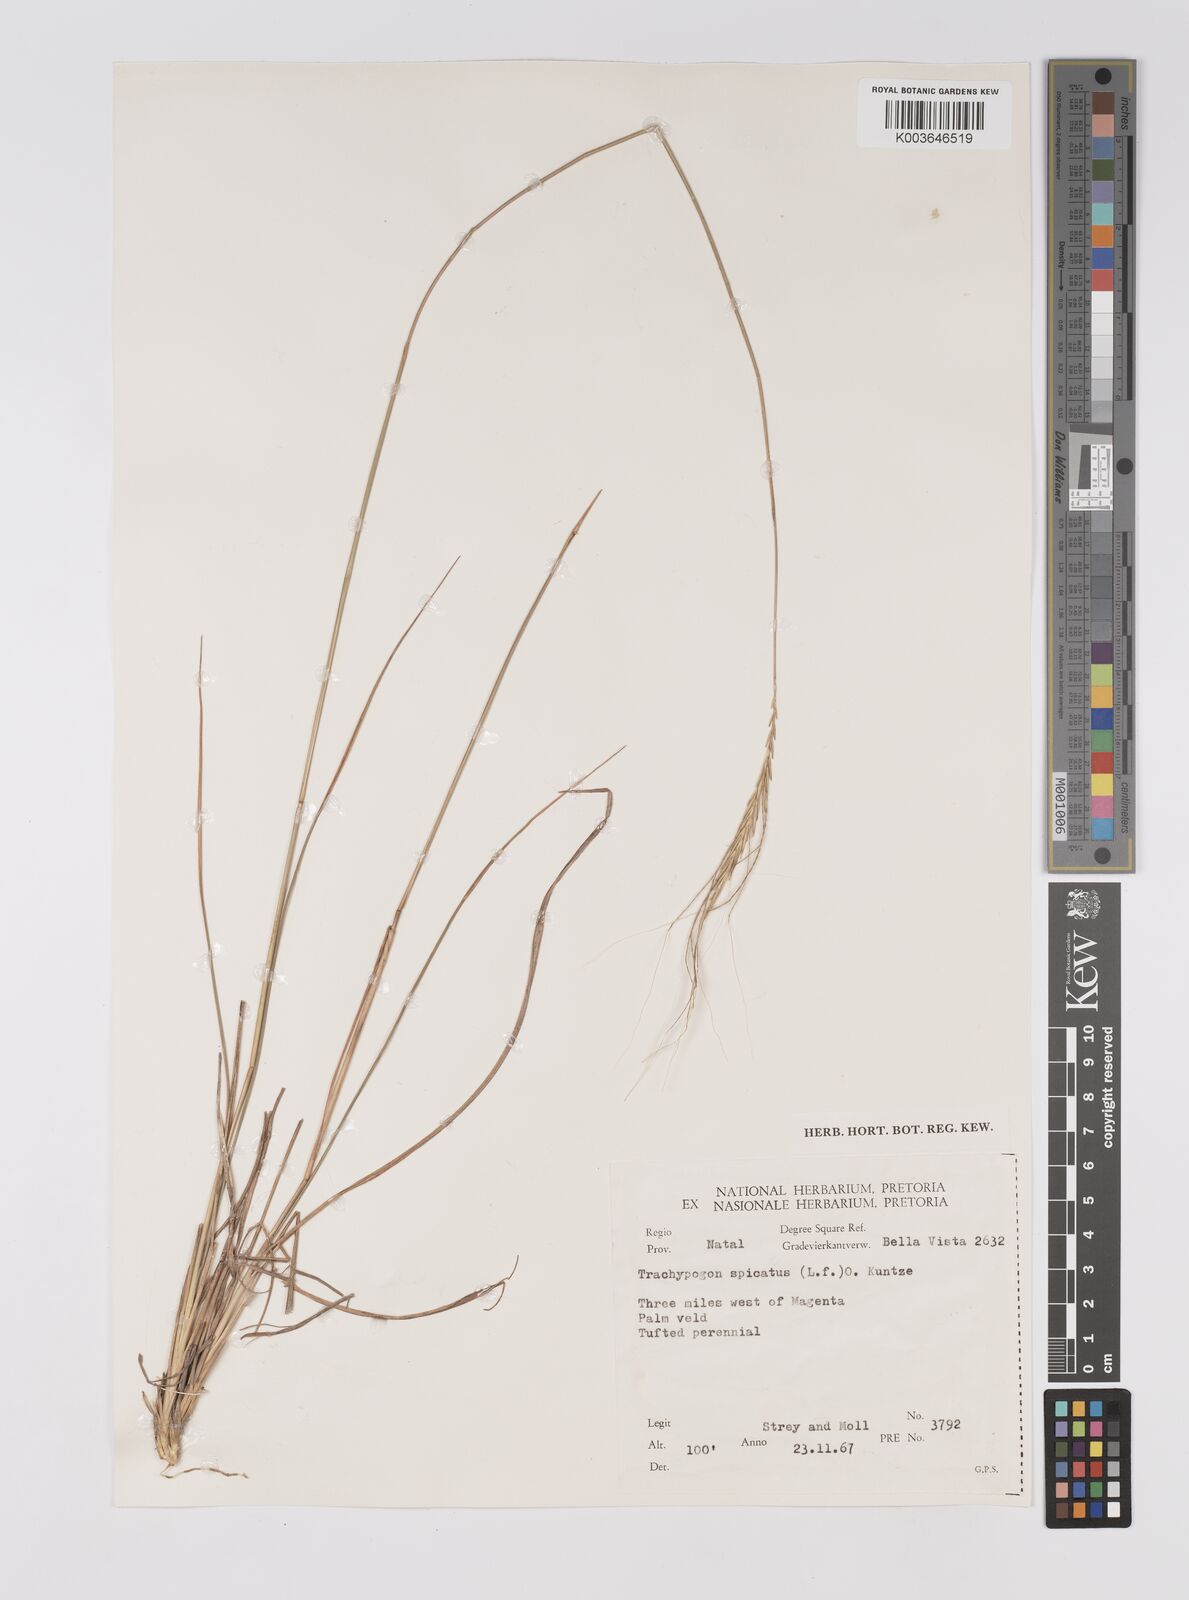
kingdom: Plantae
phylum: Tracheophyta
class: Liliopsida
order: Poales
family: Poaceae
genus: Trachypogon
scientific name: Trachypogon spicatus
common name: Crinkle-awn
